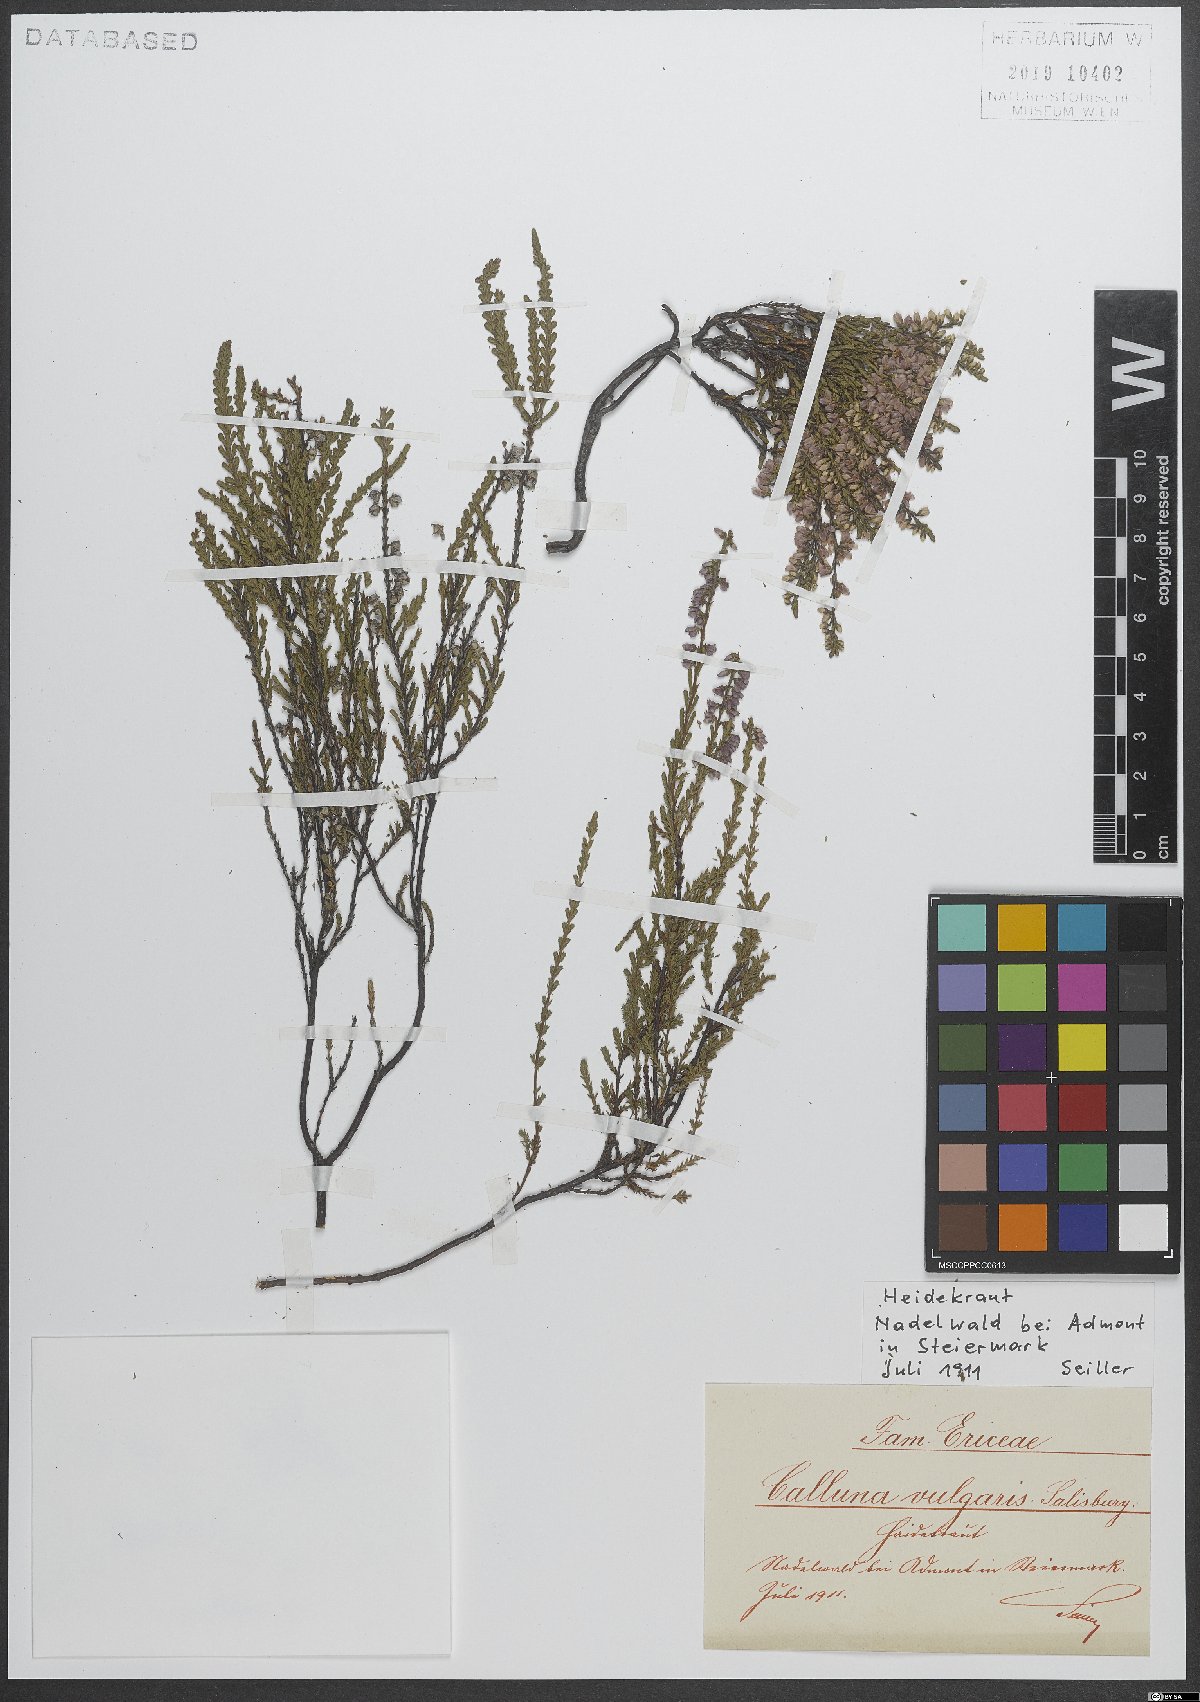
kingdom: Plantae
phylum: Tracheophyta
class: Magnoliopsida
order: Ericales
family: Ericaceae
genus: Calluna
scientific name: Calluna vulgaris
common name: Heather
